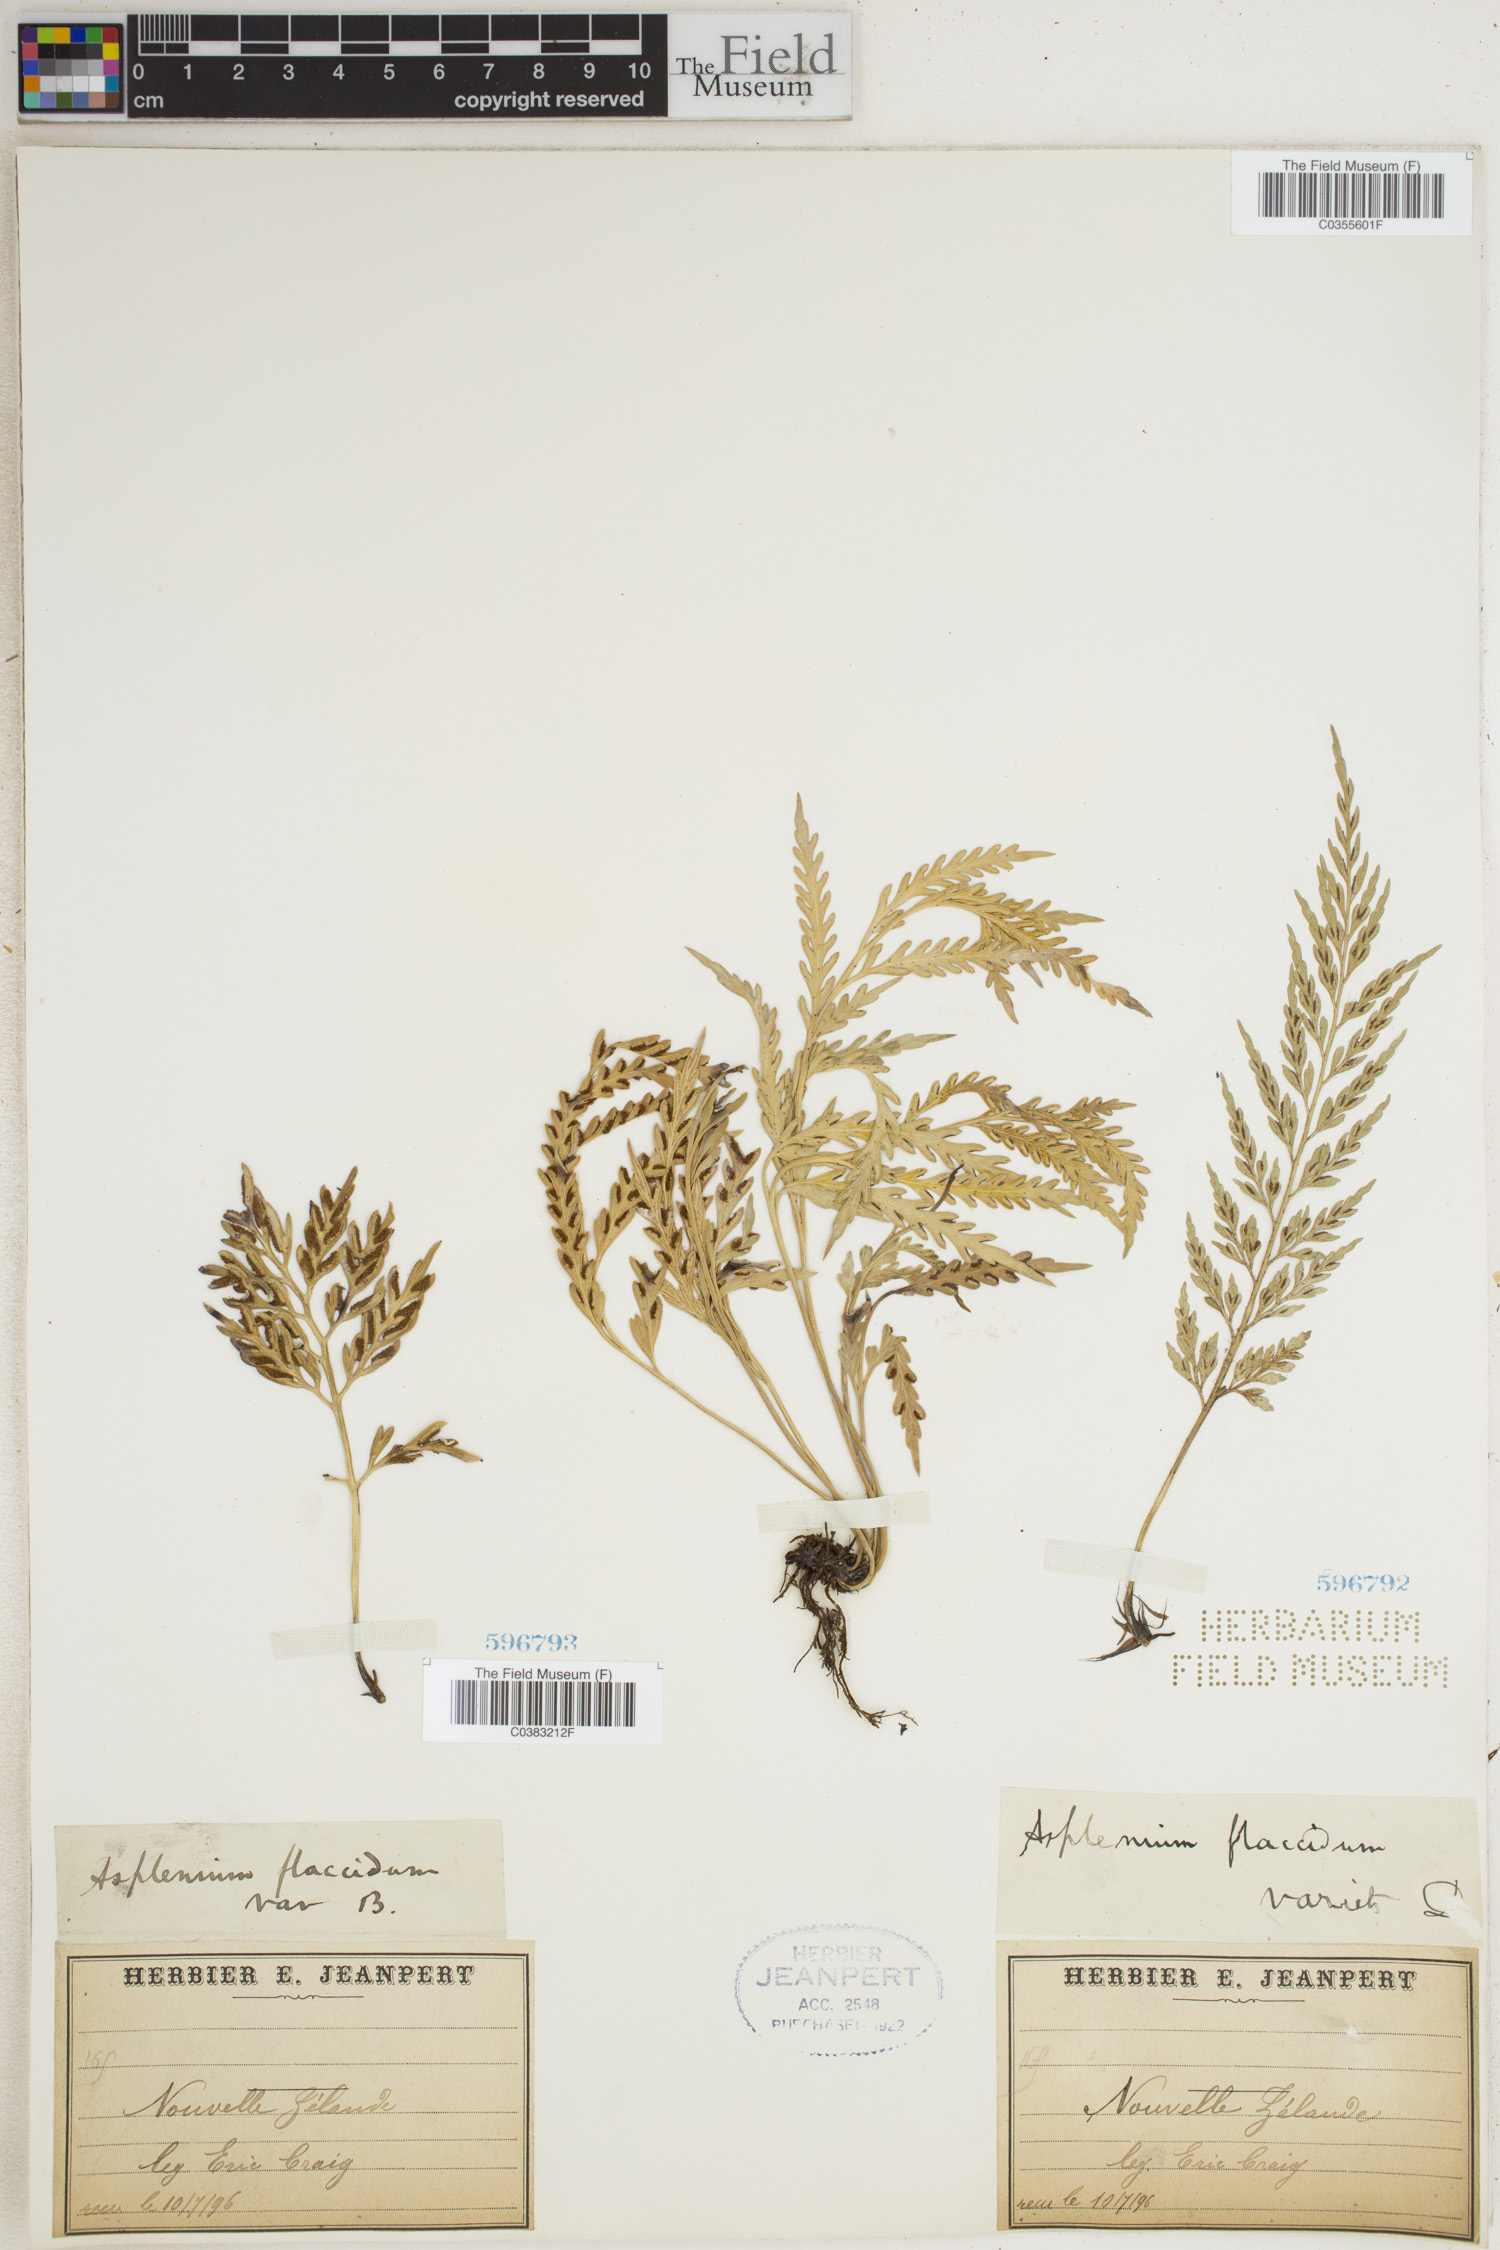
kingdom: Plantae
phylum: Tracheophyta
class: Polypodiopsida
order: Polypodiales
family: Aspleniaceae
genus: Asplenium
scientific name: Asplenium flaccidum
